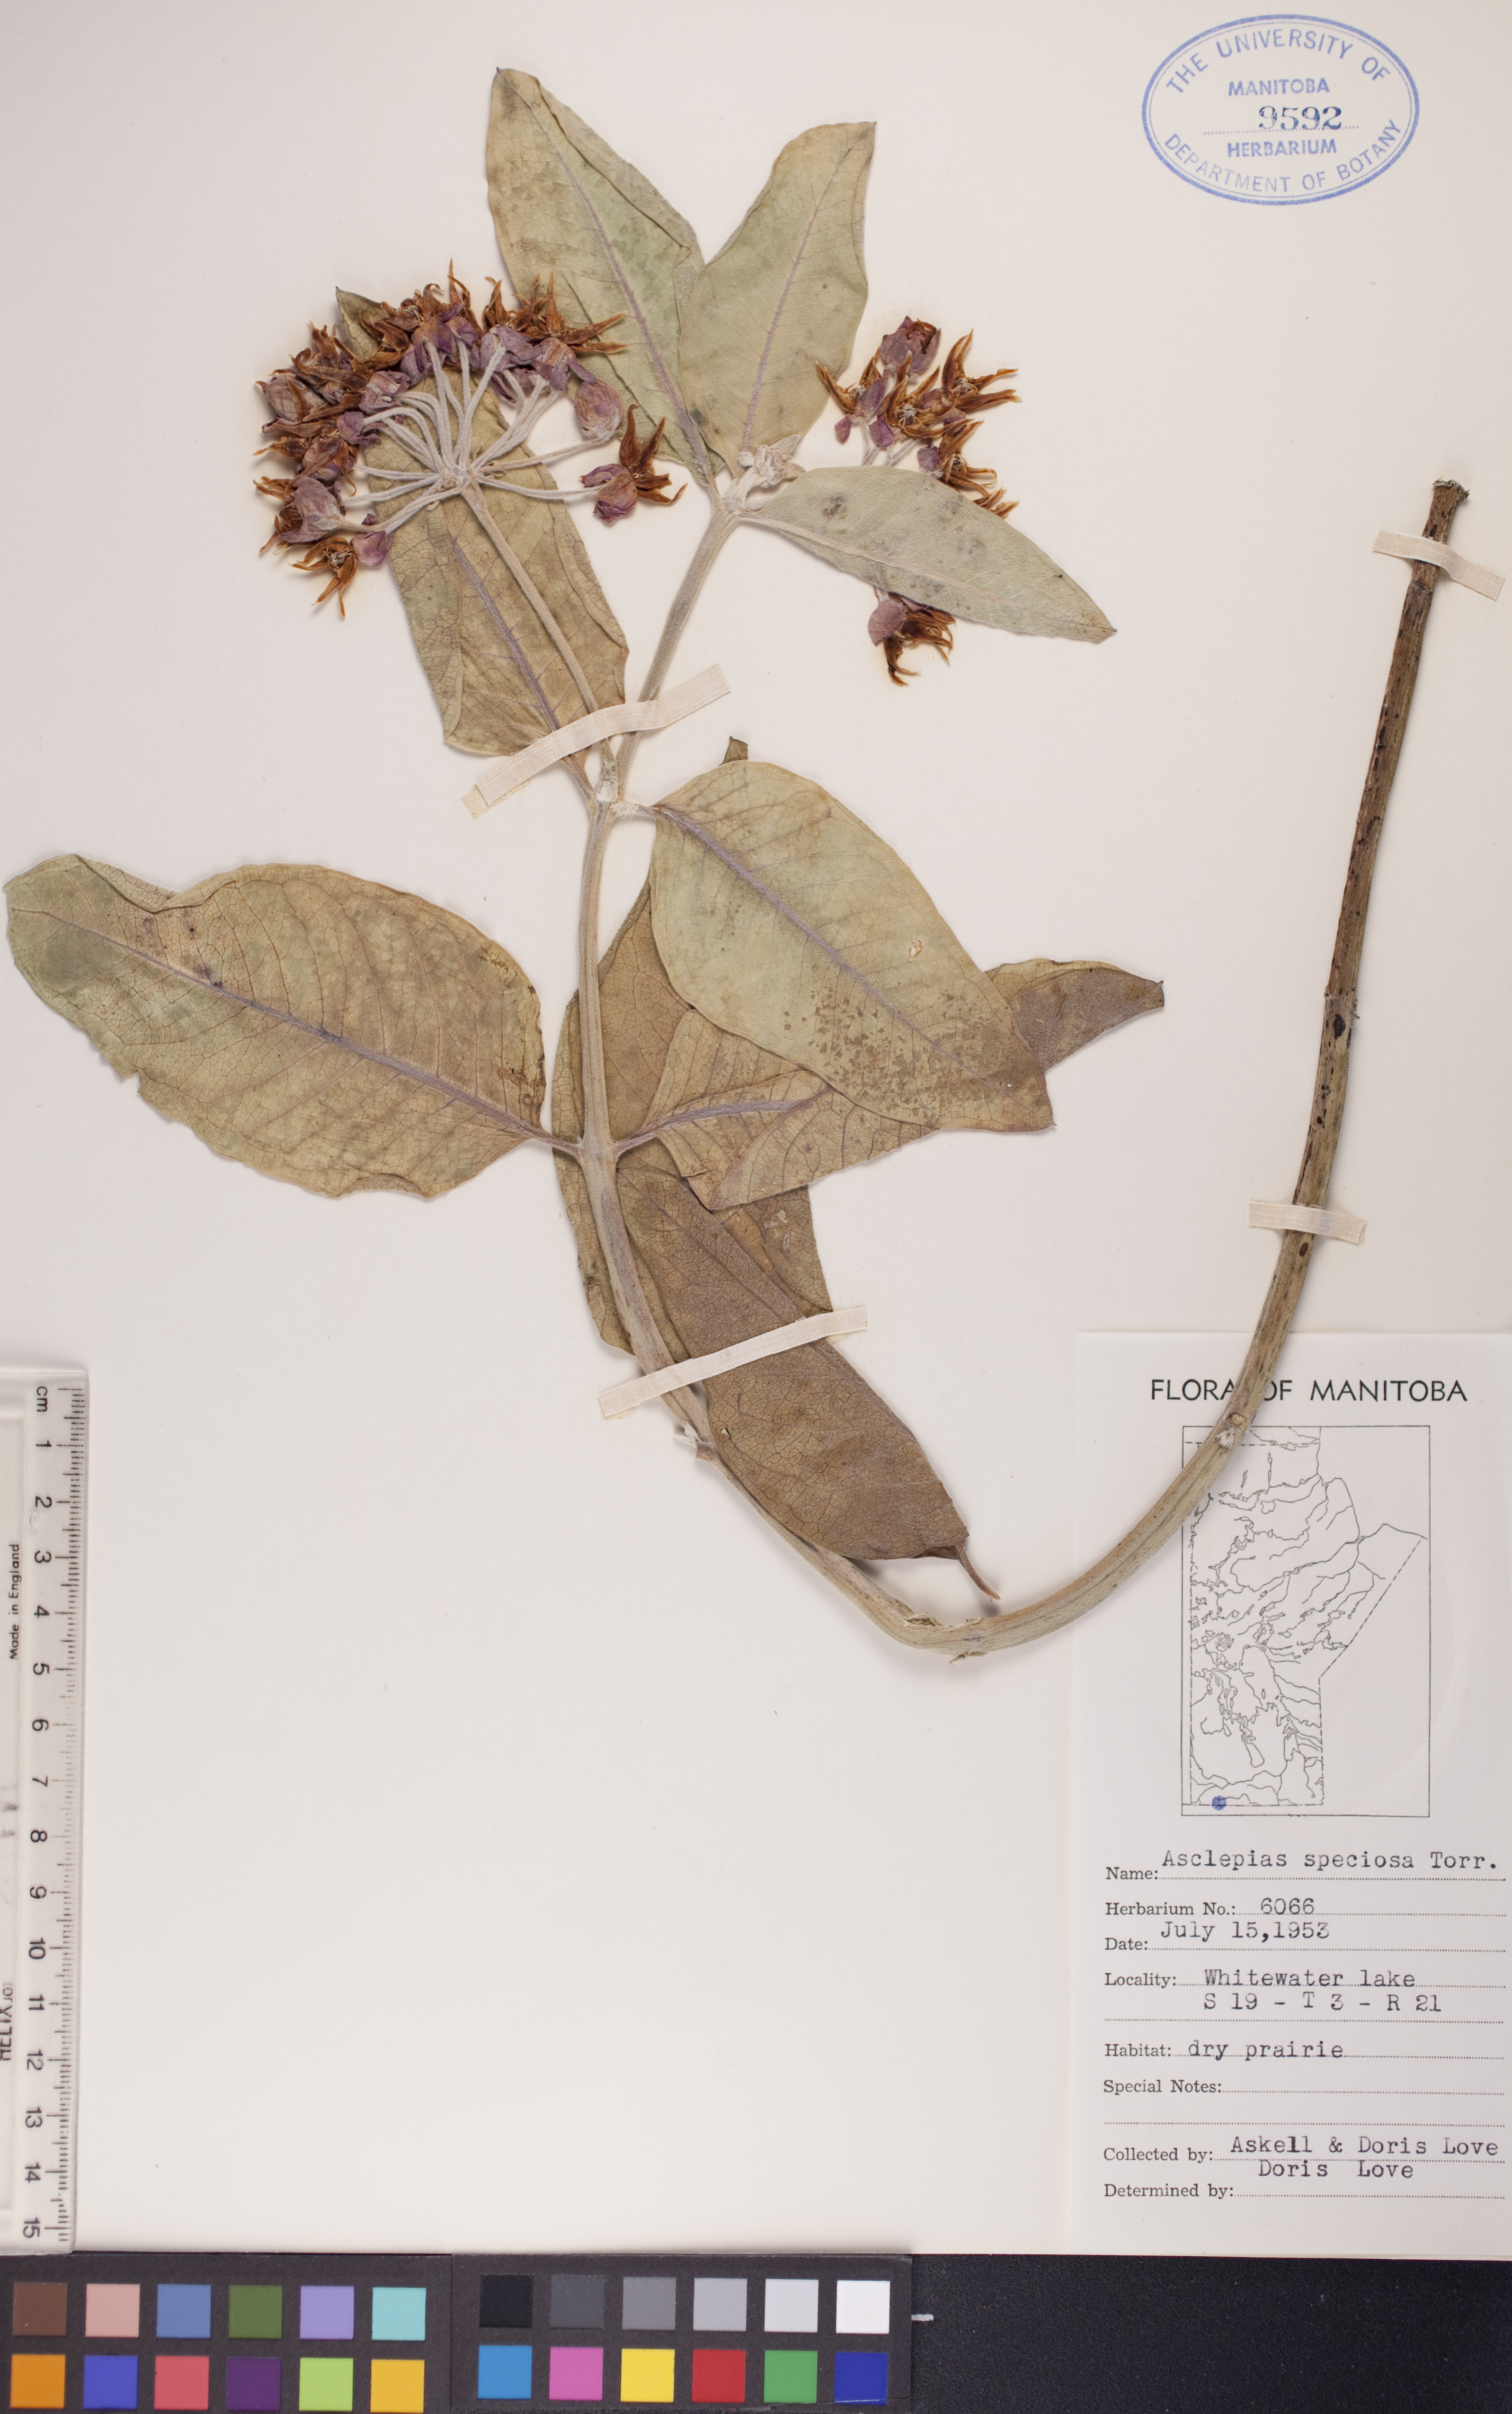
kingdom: Plantae
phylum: Tracheophyta
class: Magnoliopsida
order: Gentianales
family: Apocynaceae
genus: Asclepias
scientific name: Asclepias speciosa
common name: Showy milkweed
